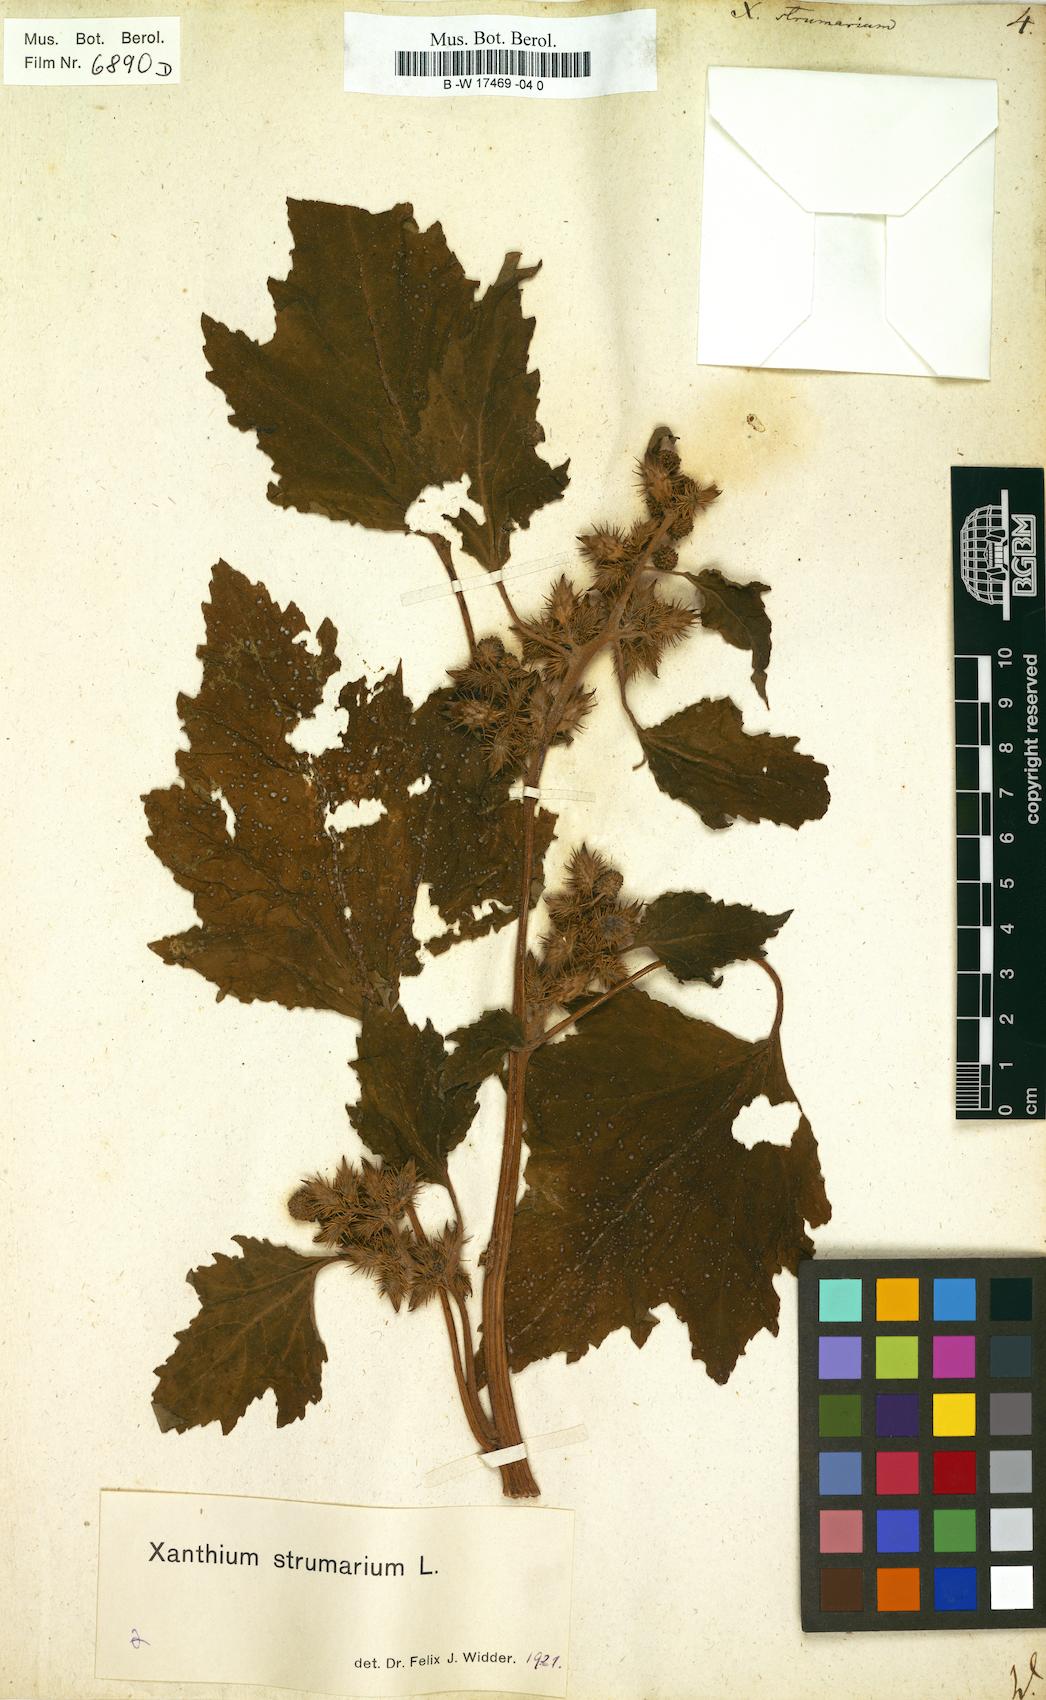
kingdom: Plantae
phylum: Tracheophyta
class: Magnoliopsida
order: Asterales
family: Asteraceae
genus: Xanthium
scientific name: Xanthium strumarium
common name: Rough cocklebur
